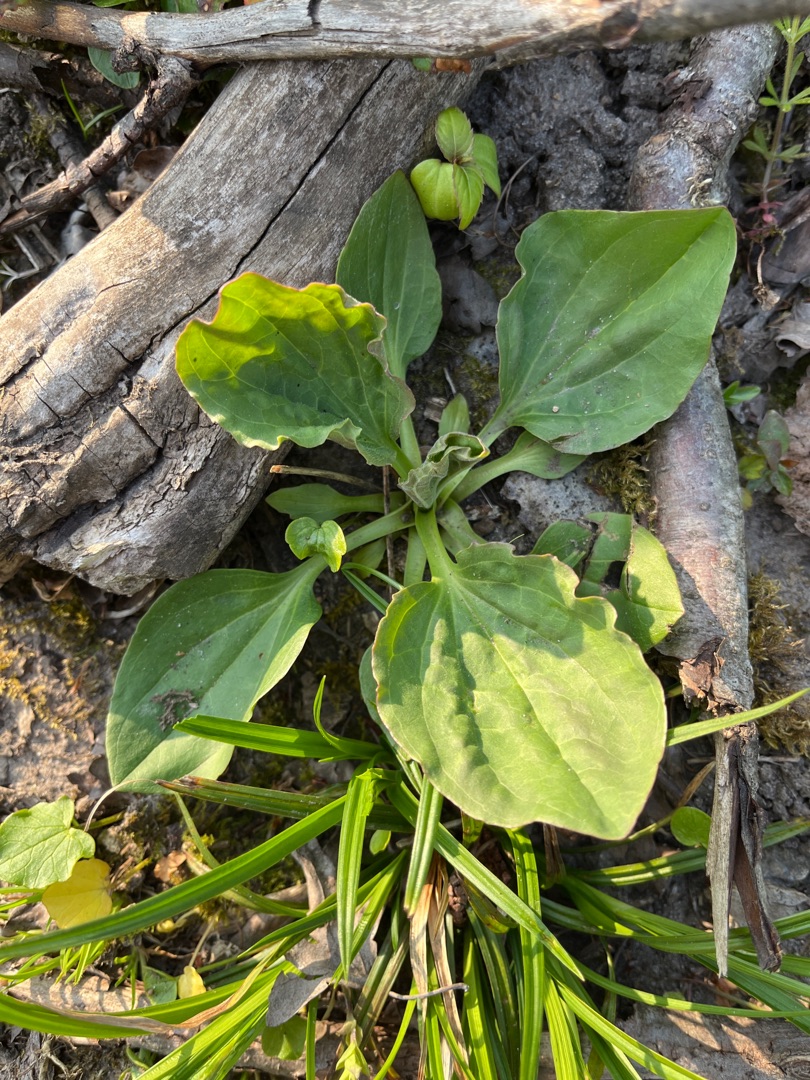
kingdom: Plantae
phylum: Tracheophyta
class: Magnoliopsida
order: Lamiales
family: Plantaginaceae
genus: Plantago
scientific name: Plantago major
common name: Glat vejbred
